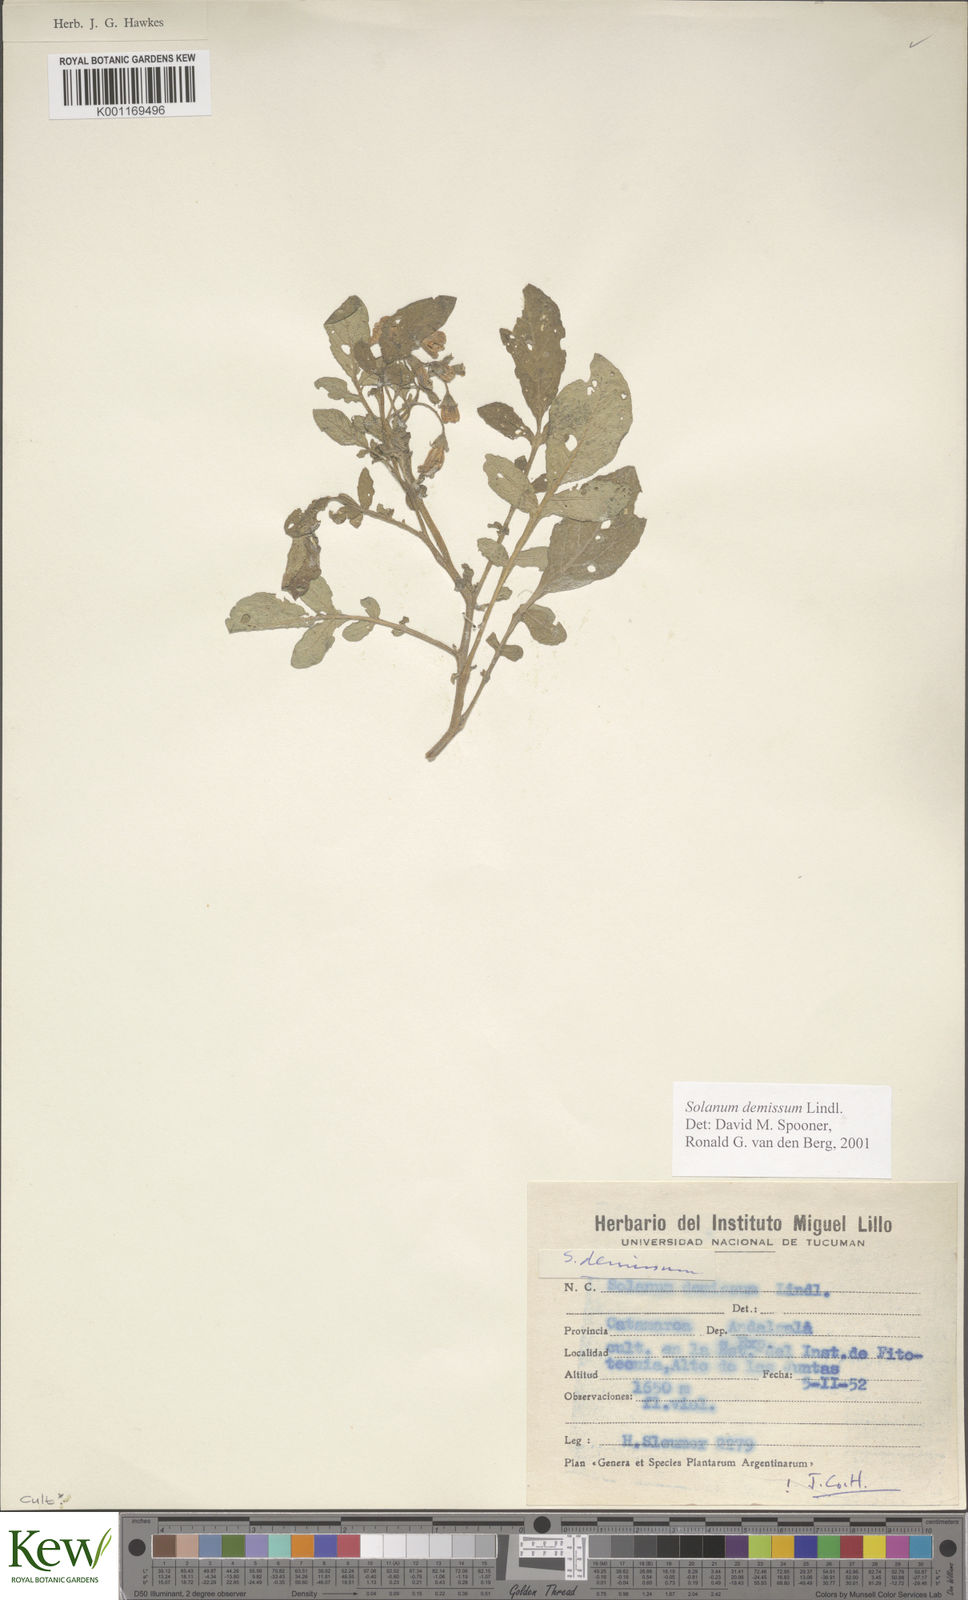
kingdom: Plantae
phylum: Tracheophyta
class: Magnoliopsida
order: Solanales
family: Solanaceae
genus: Solanum
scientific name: Solanum demissum
